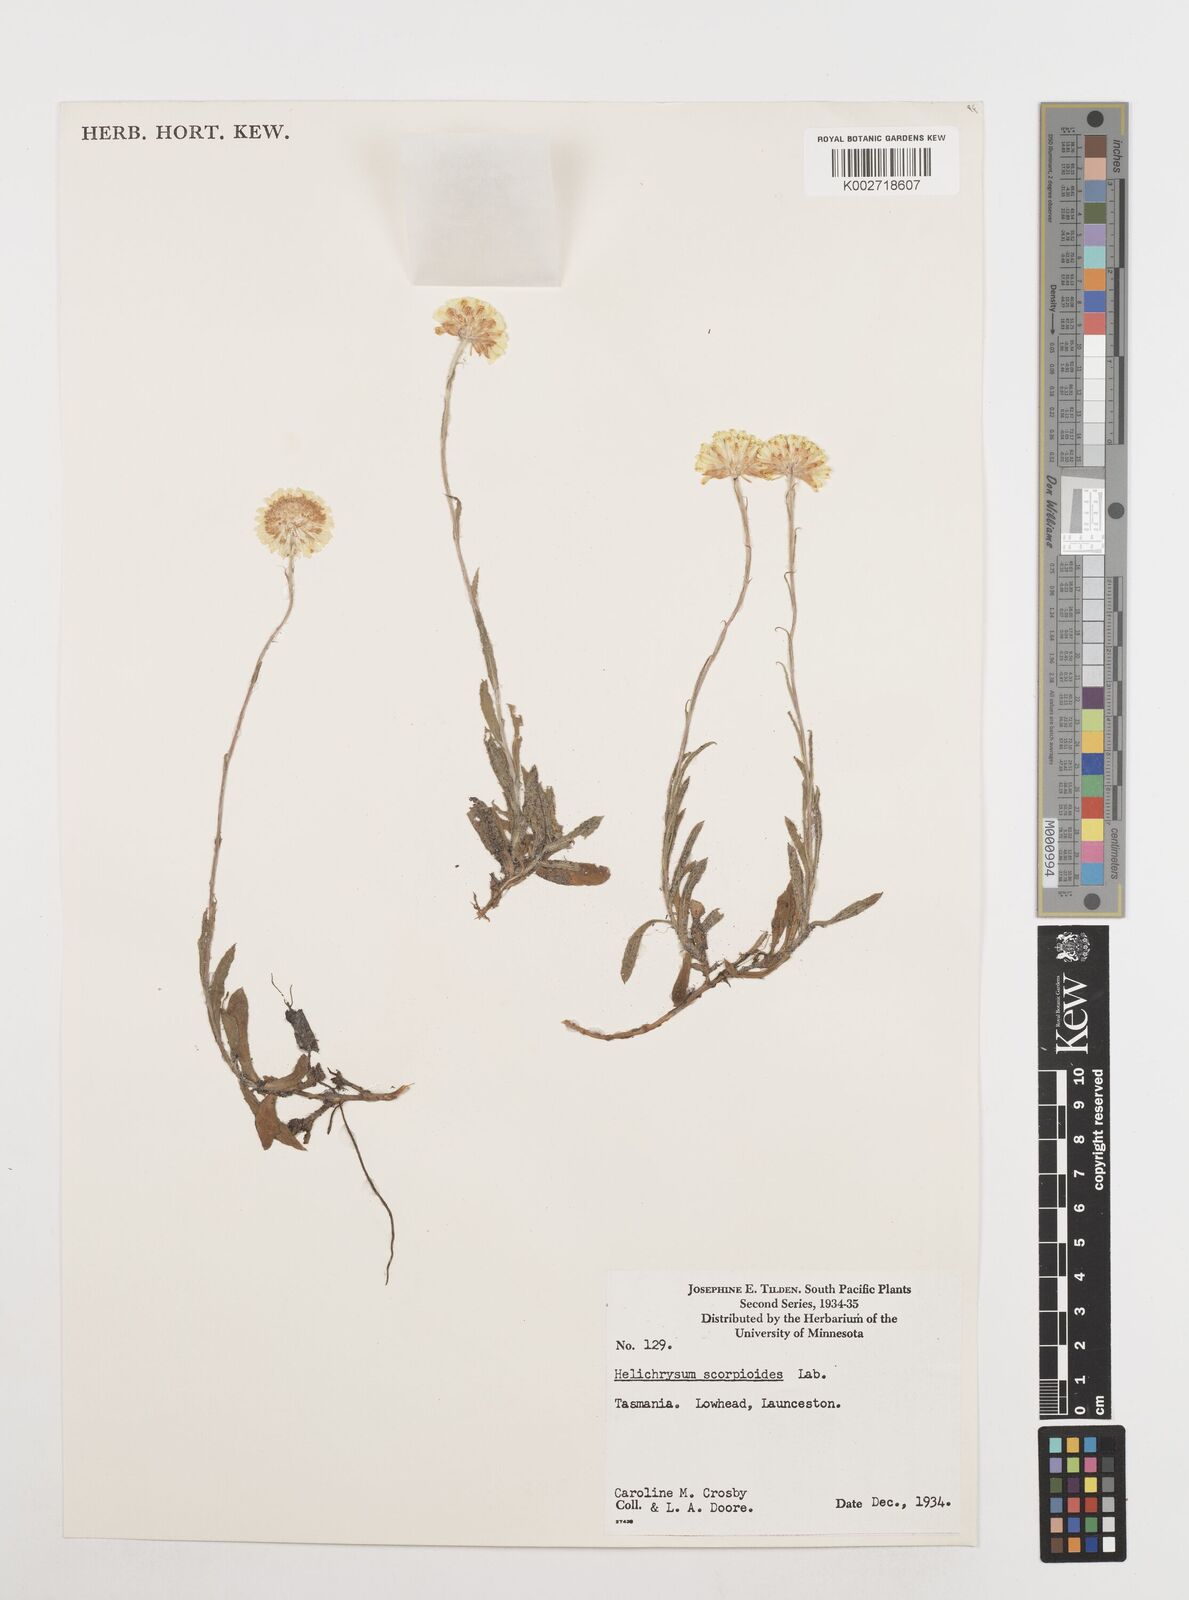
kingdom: Plantae
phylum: Tracheophyta
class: Magnoliopsida
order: Asterales
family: Asteraceae
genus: Coronidium
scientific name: Coronidium scorpioides
